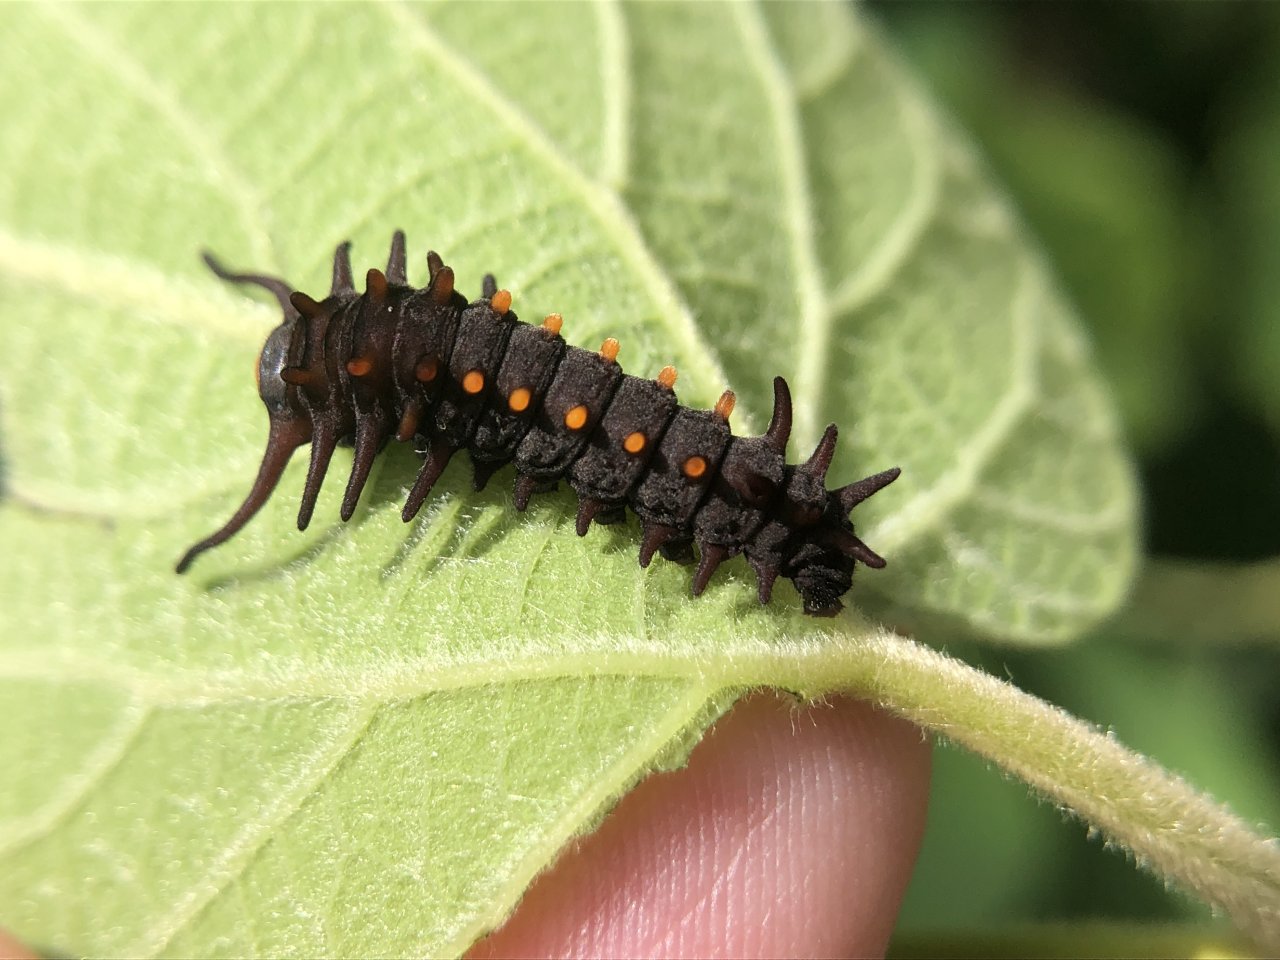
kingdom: Animalia
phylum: Arthropoda
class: Insecta
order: Lepidoptera
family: Papilionidae
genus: Battus
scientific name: Battus philenor
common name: Pipevine Swallowtail
